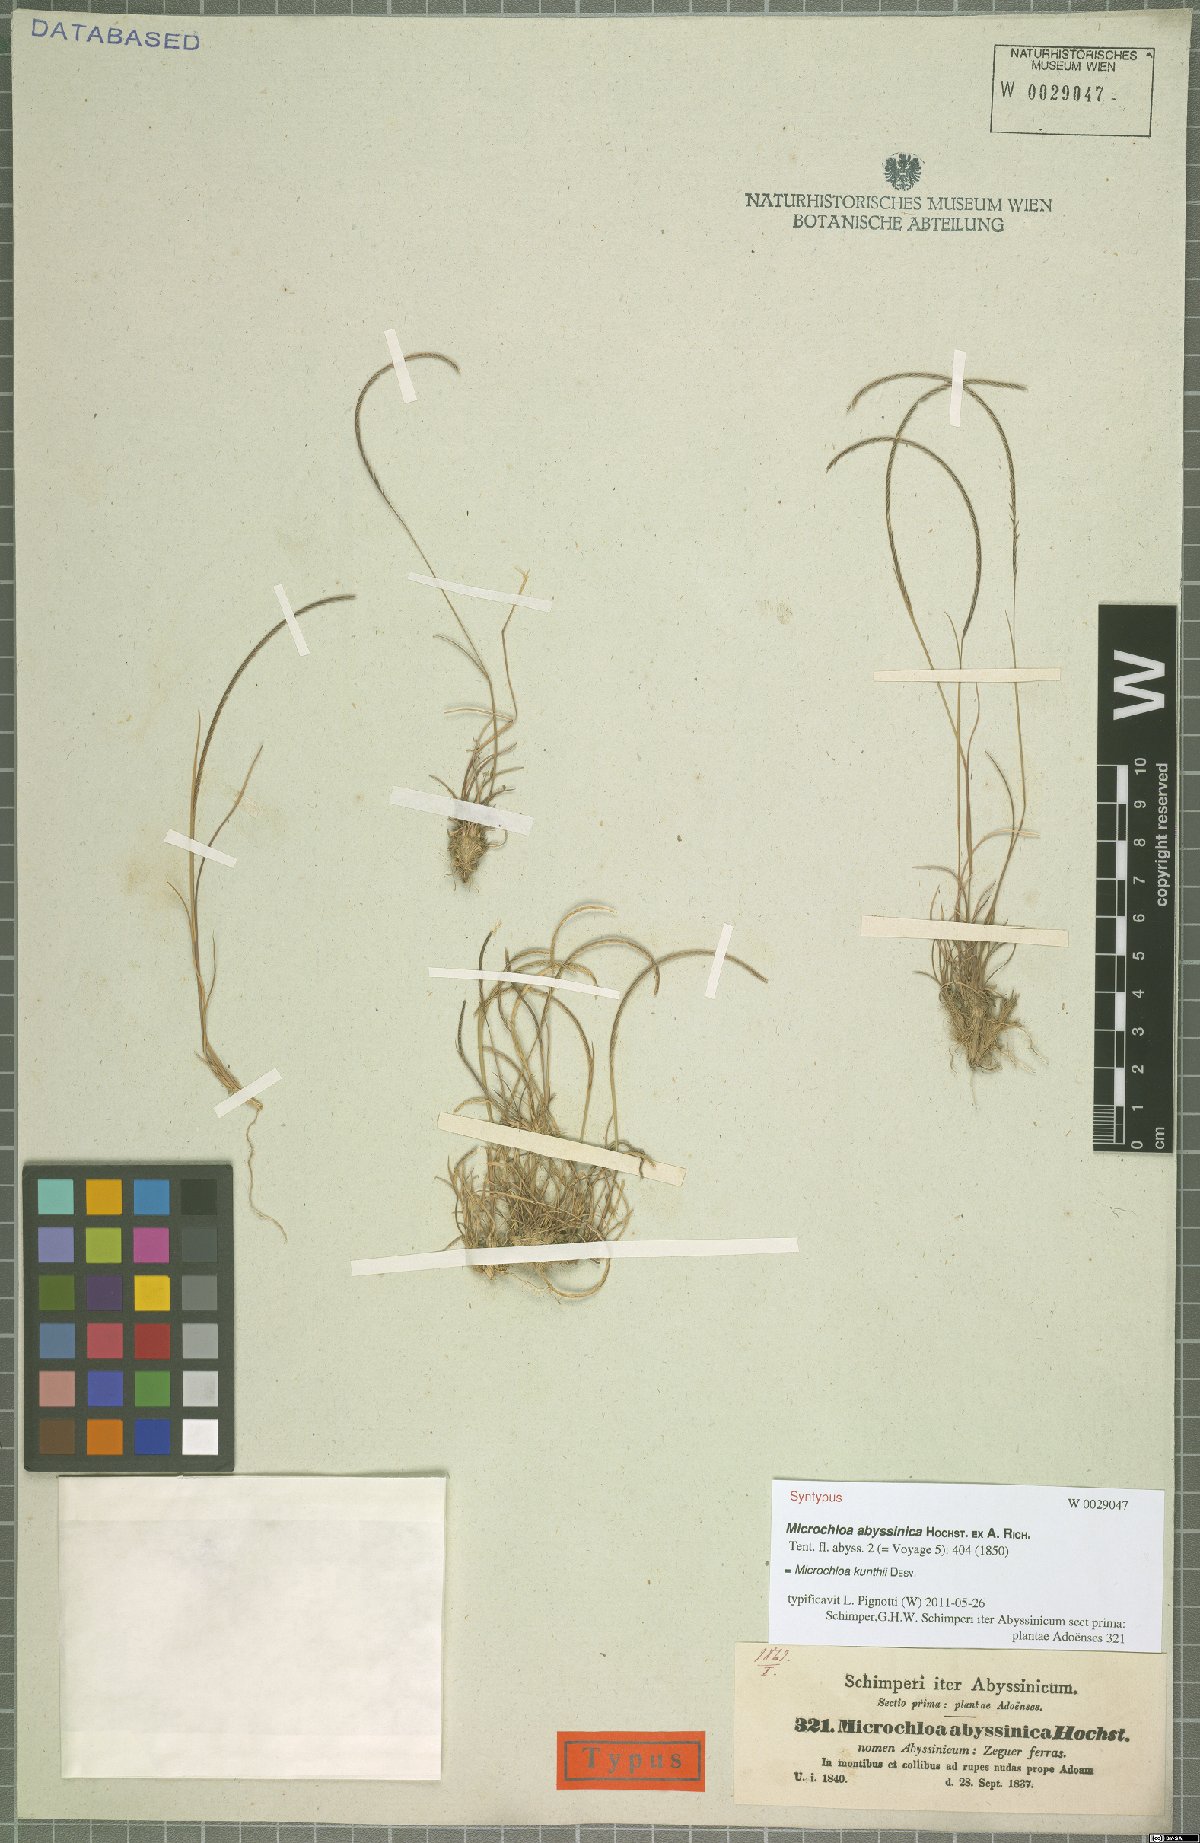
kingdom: Plantae
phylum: Tracheophyta
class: Liliopsida
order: Poales
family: Poaceae
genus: Microchloa
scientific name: Microchloa kunthii
